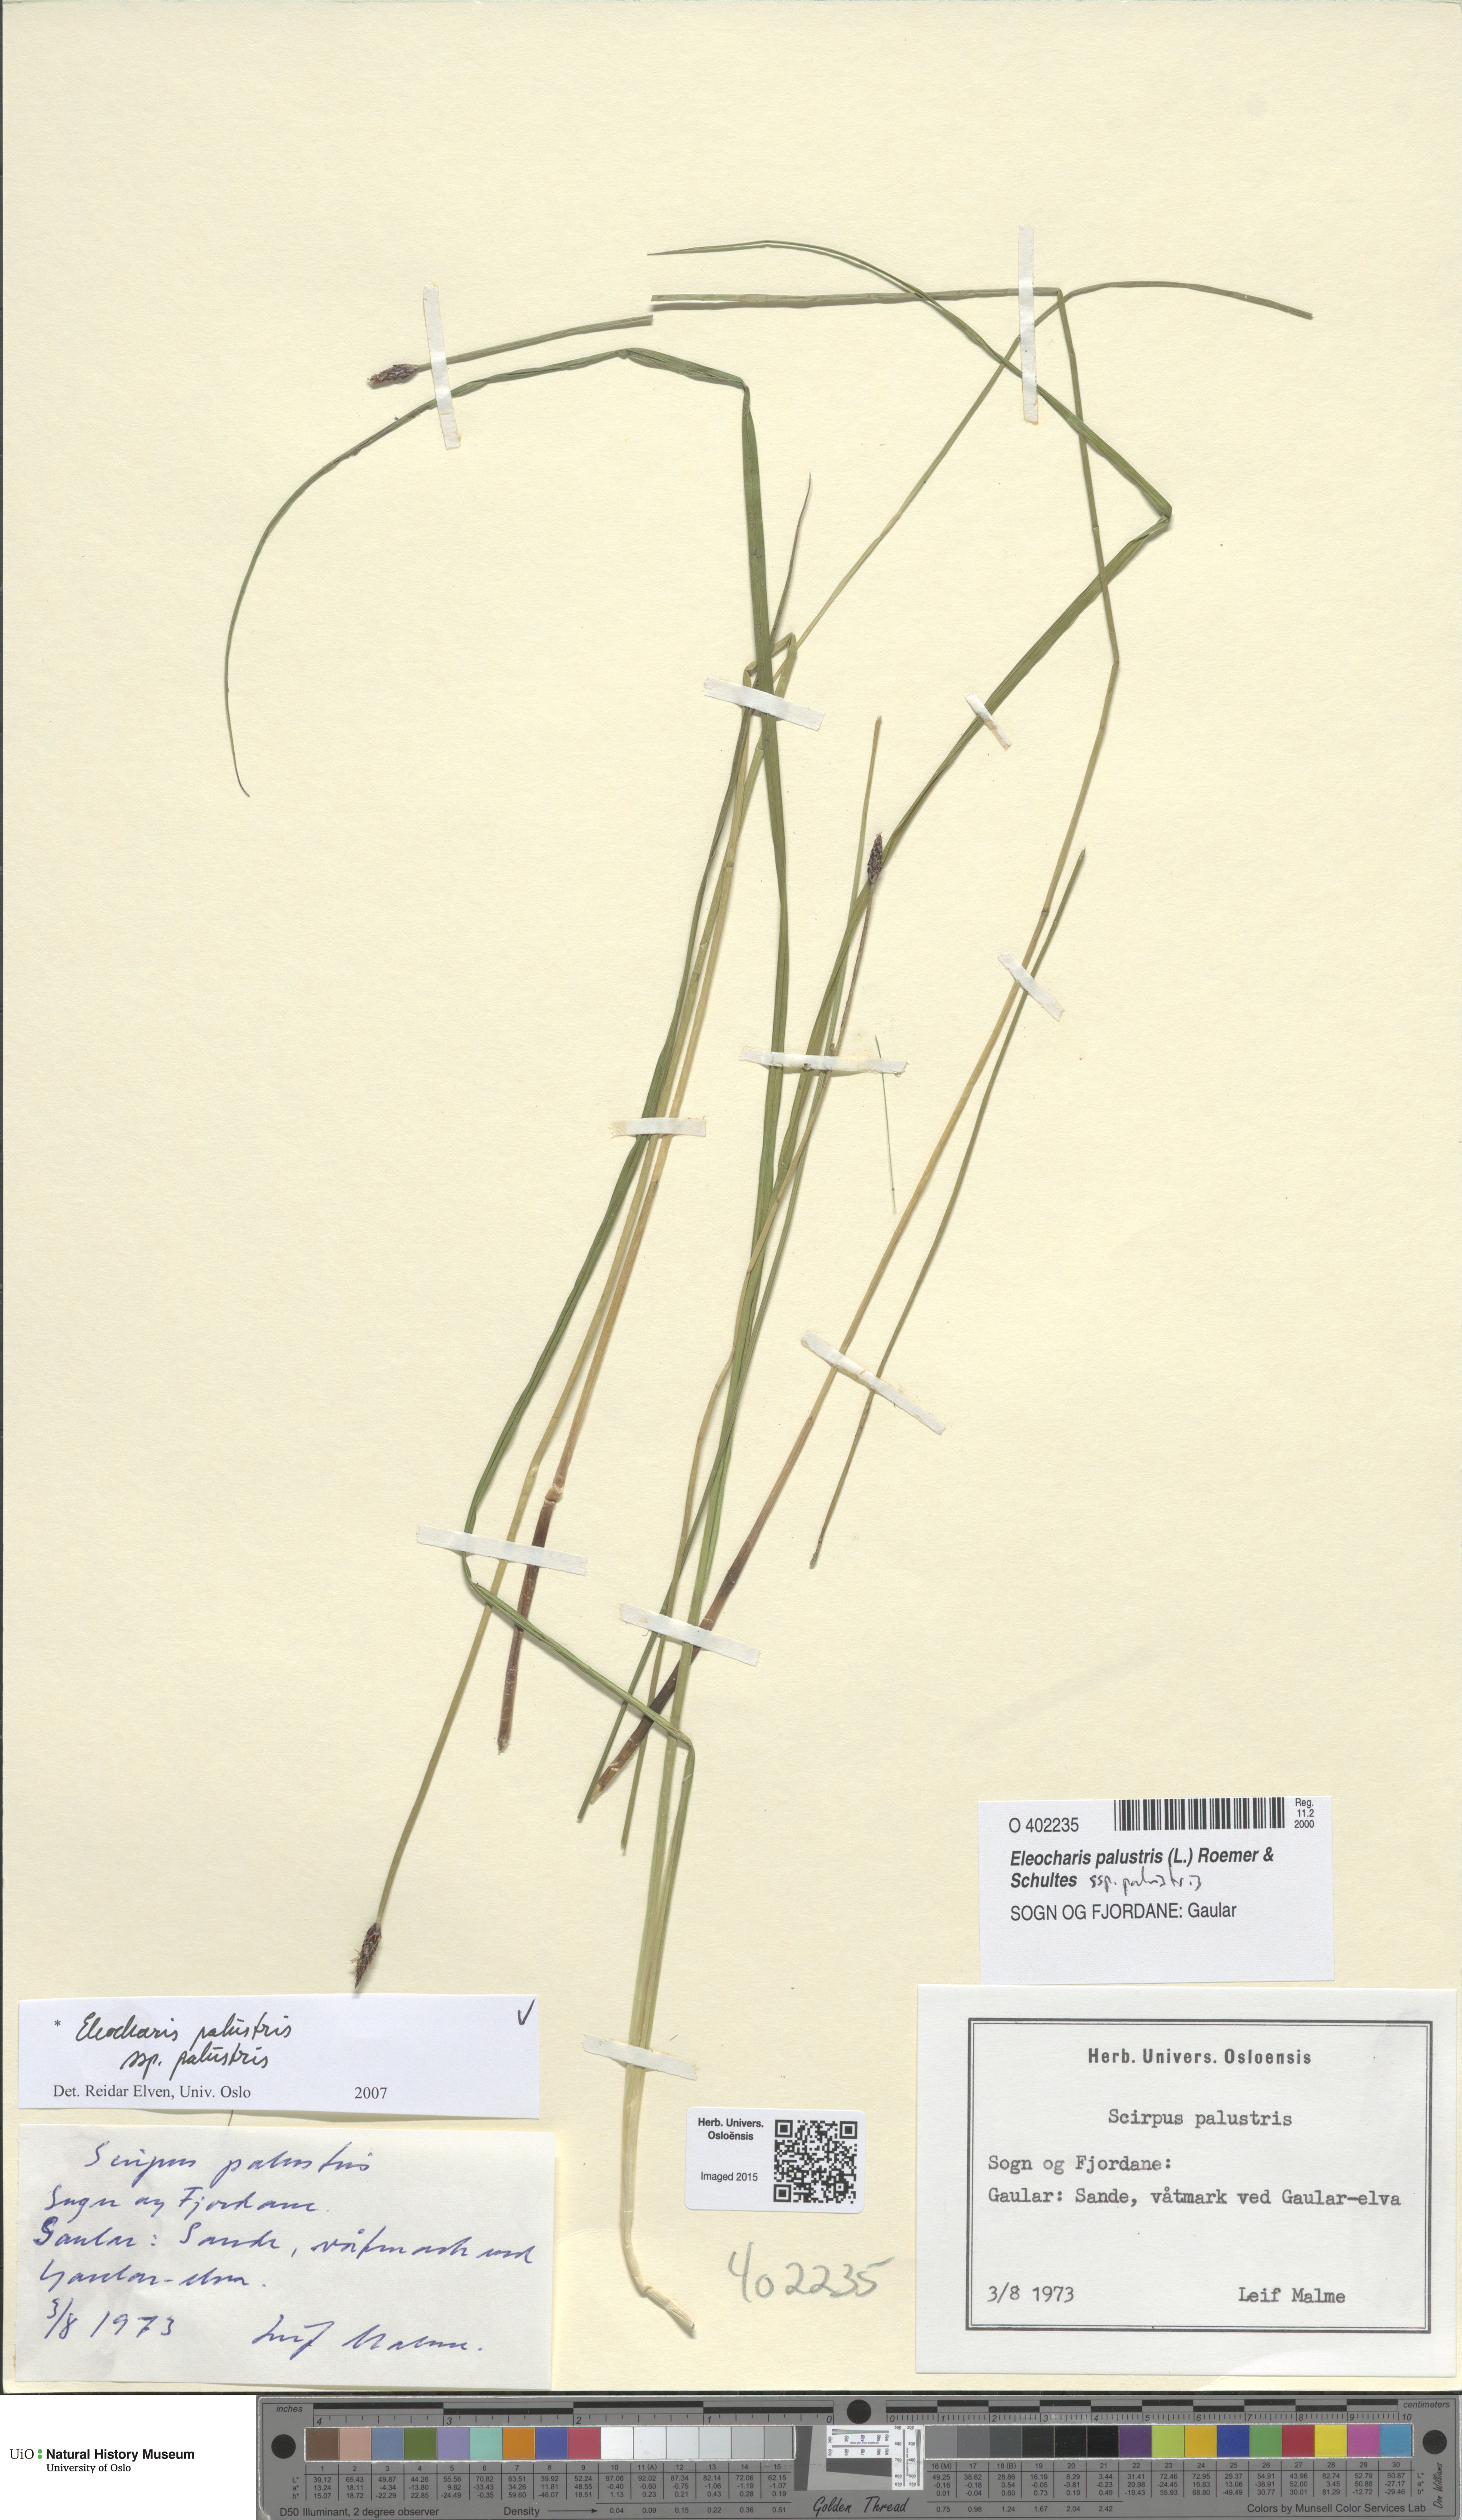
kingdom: Plantae
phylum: Tracheophyta
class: Liliopsida
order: Poales
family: Cyperaceae
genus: Eleocharis
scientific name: Eleocharis palustris
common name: Common spike-rush
